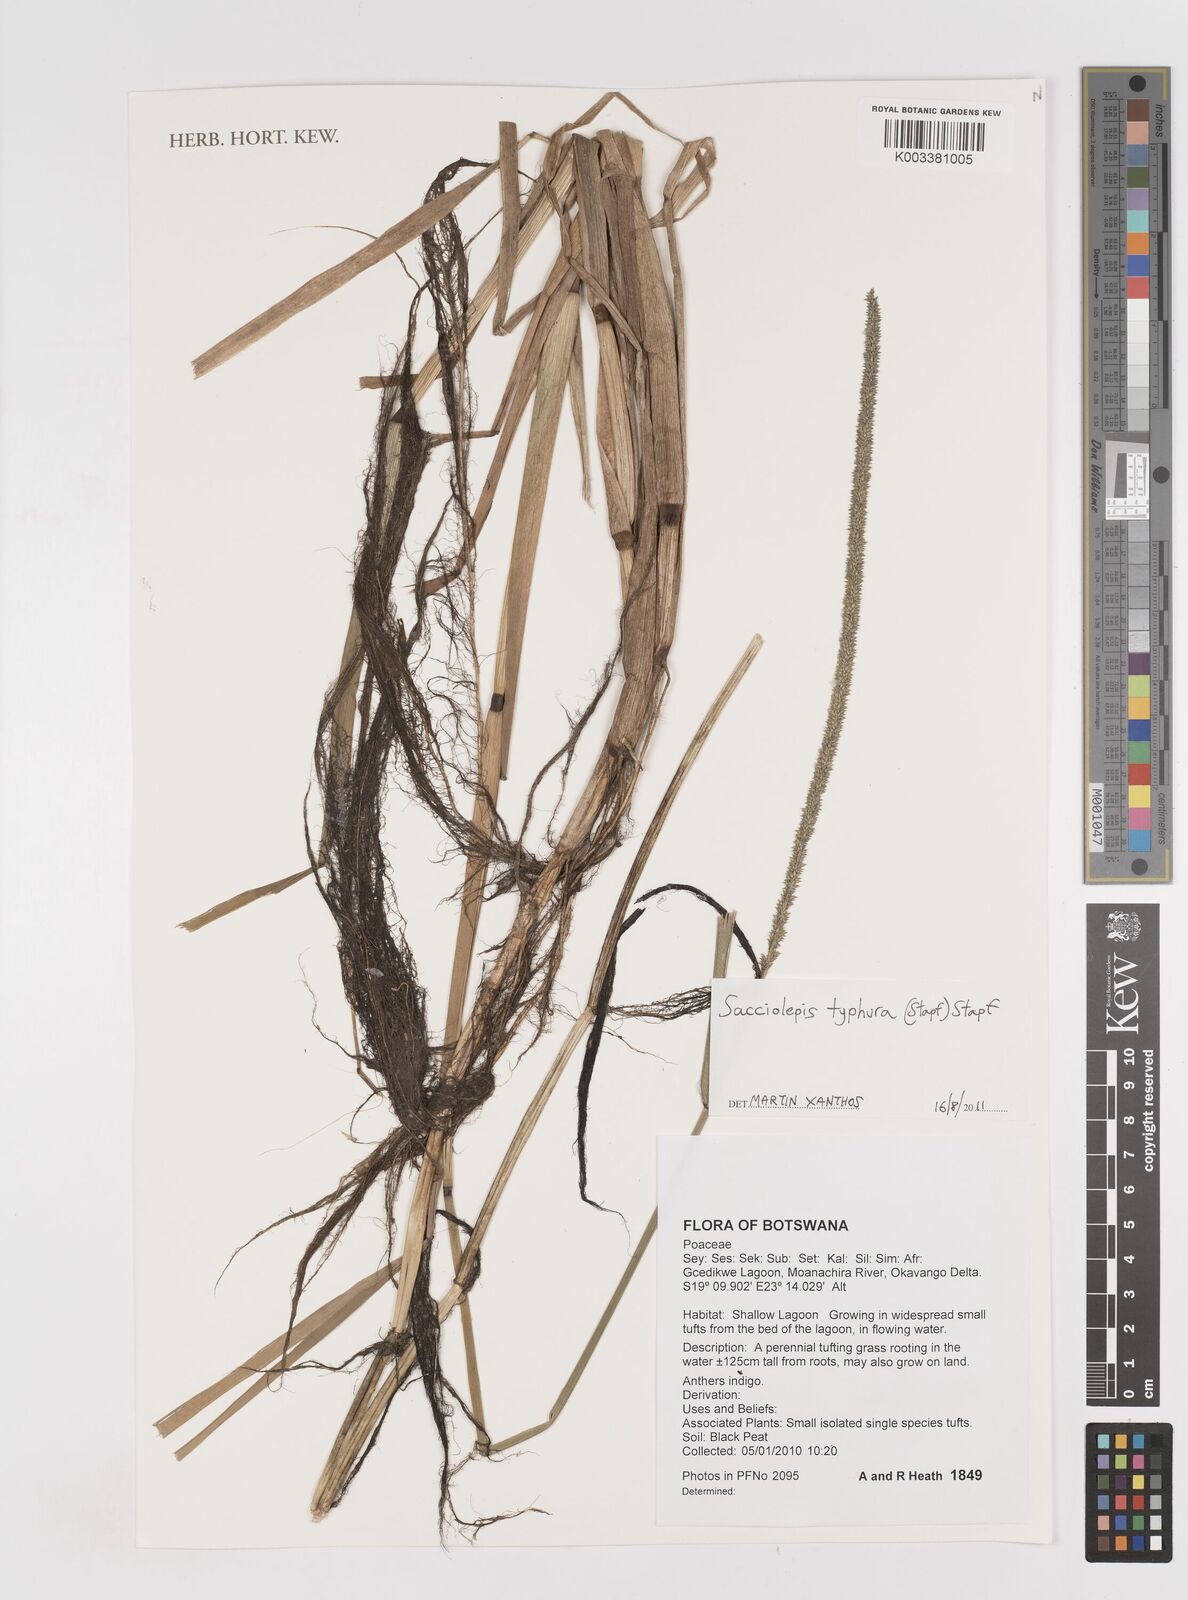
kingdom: Plantae
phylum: Tracheophyta
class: Liliopsida
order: Poales
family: Poaceae
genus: Sacciolepis
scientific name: Sacciolepis typhura
